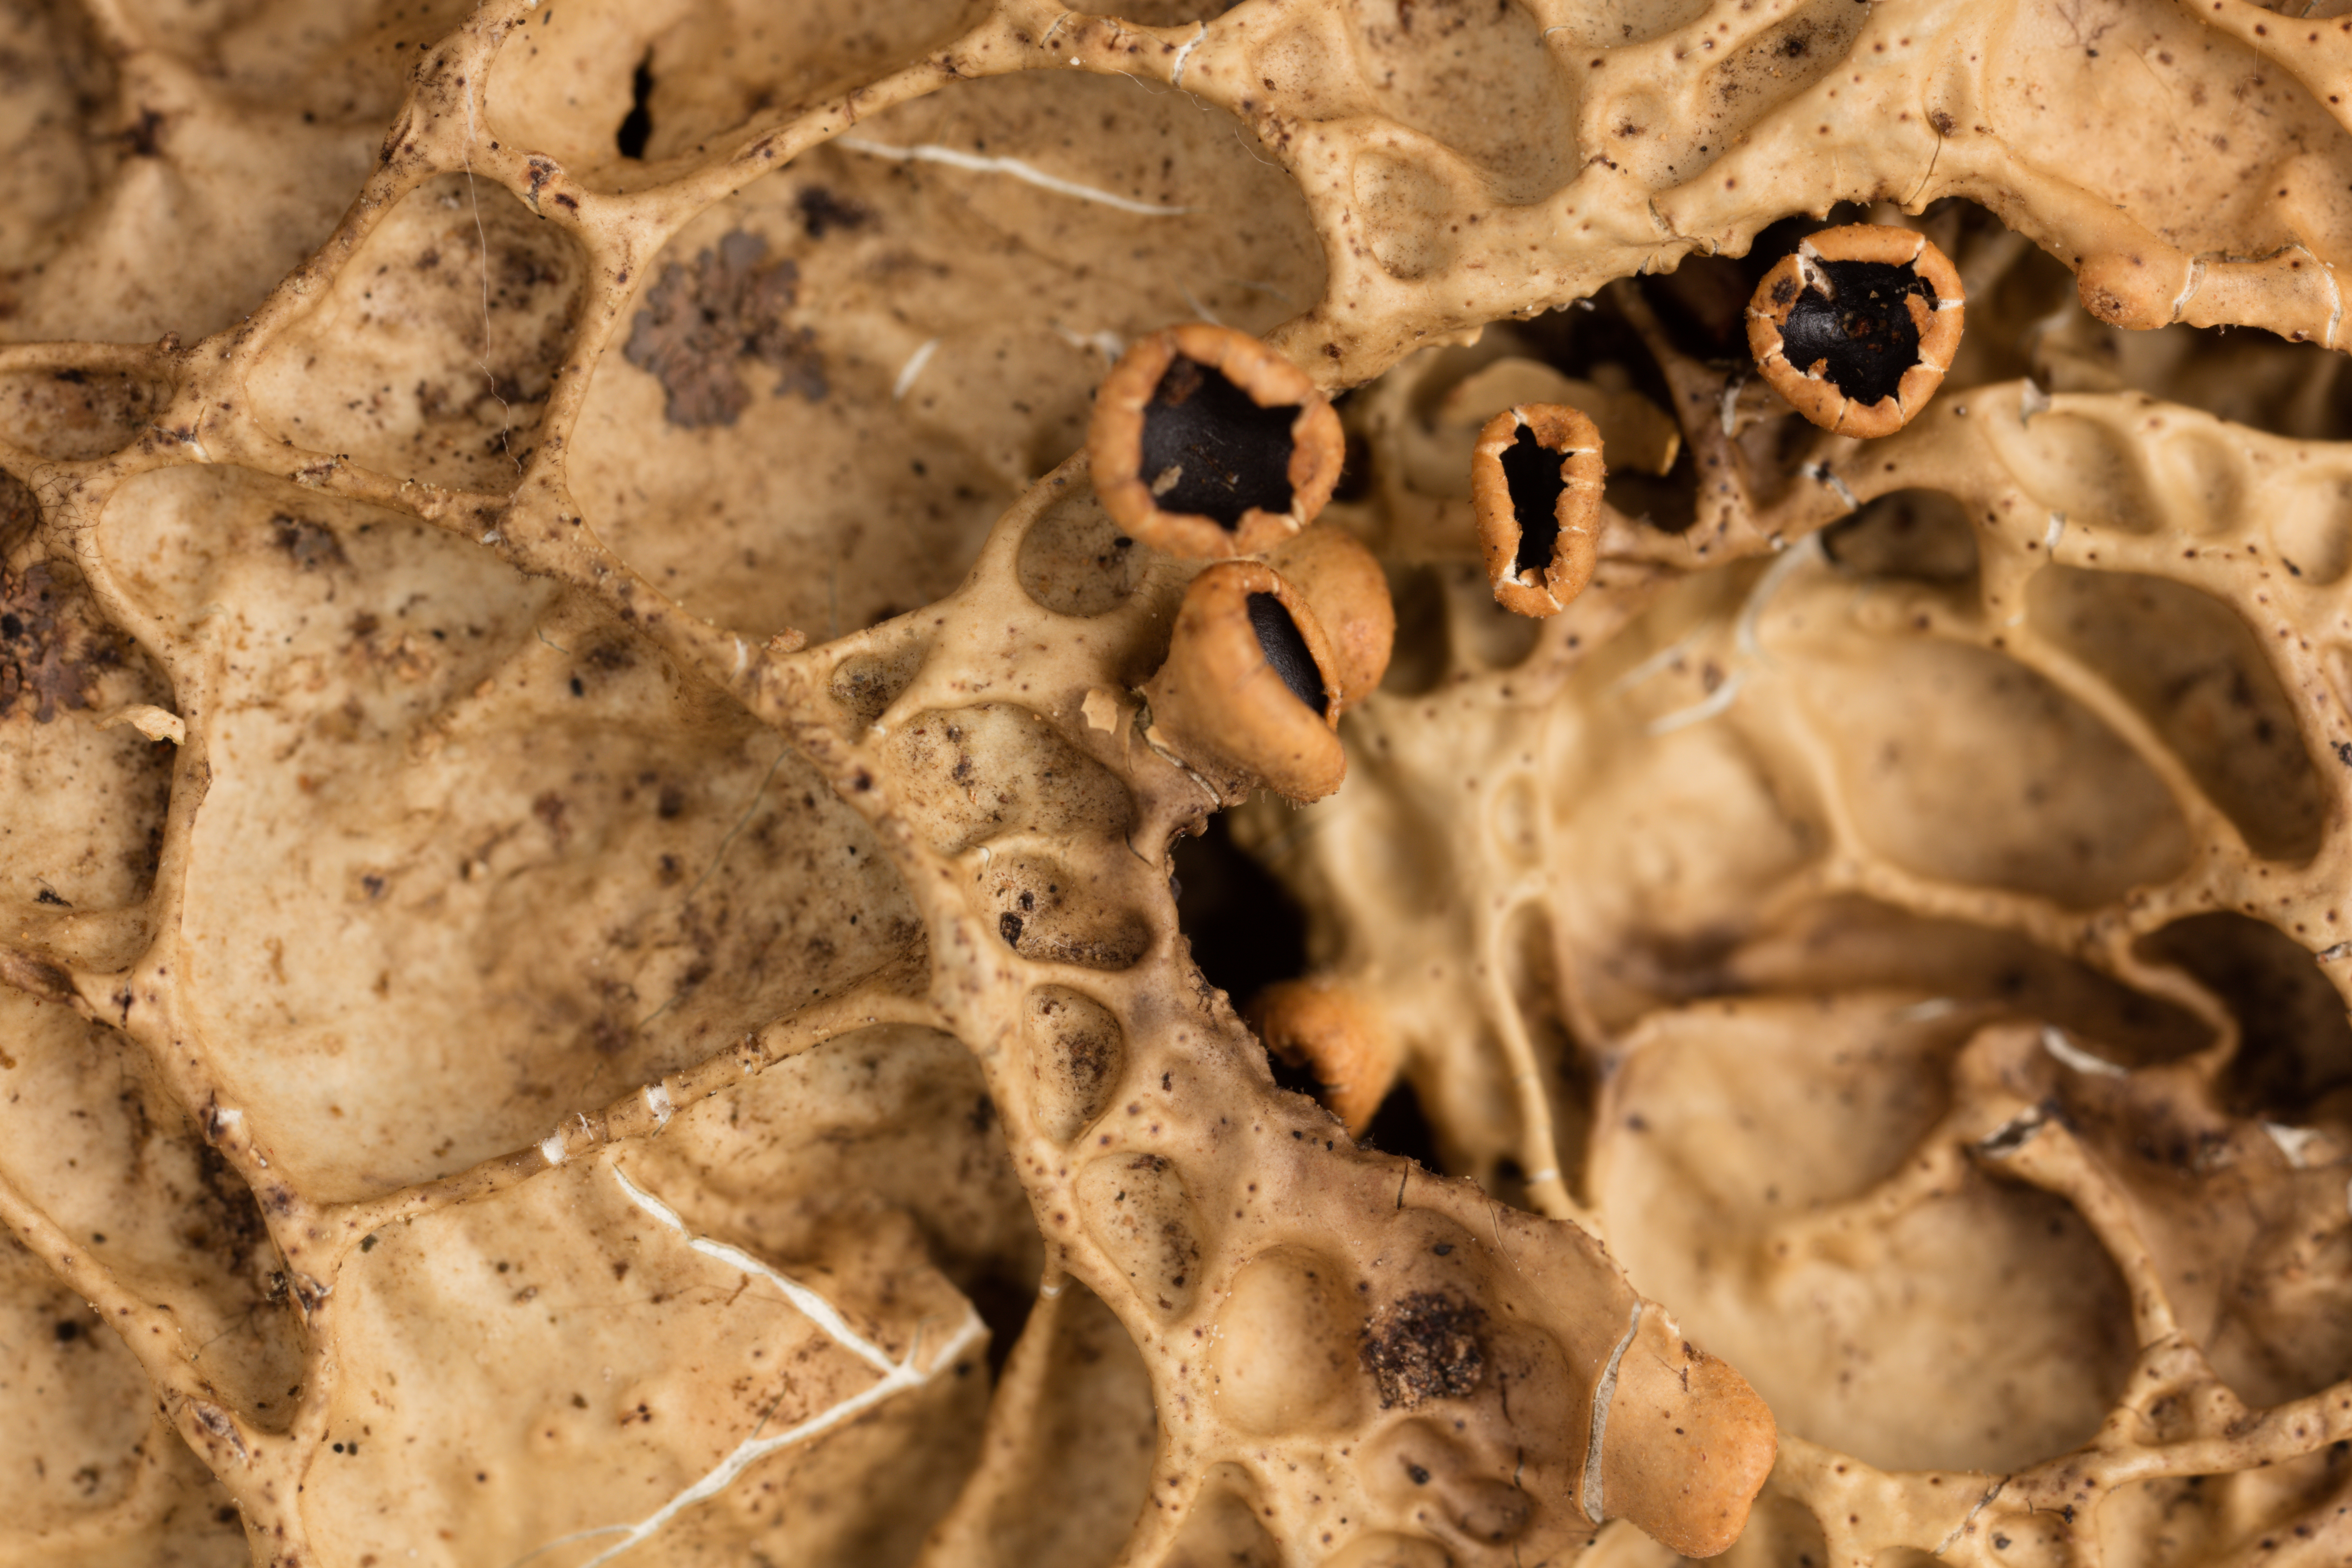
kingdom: Fungi
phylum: Ascomycota
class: Lecanoromycetes
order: Peltigerales
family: Lobariaceae
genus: Pseudocyphellaria
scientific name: Pseudocyphellaria durietzii
